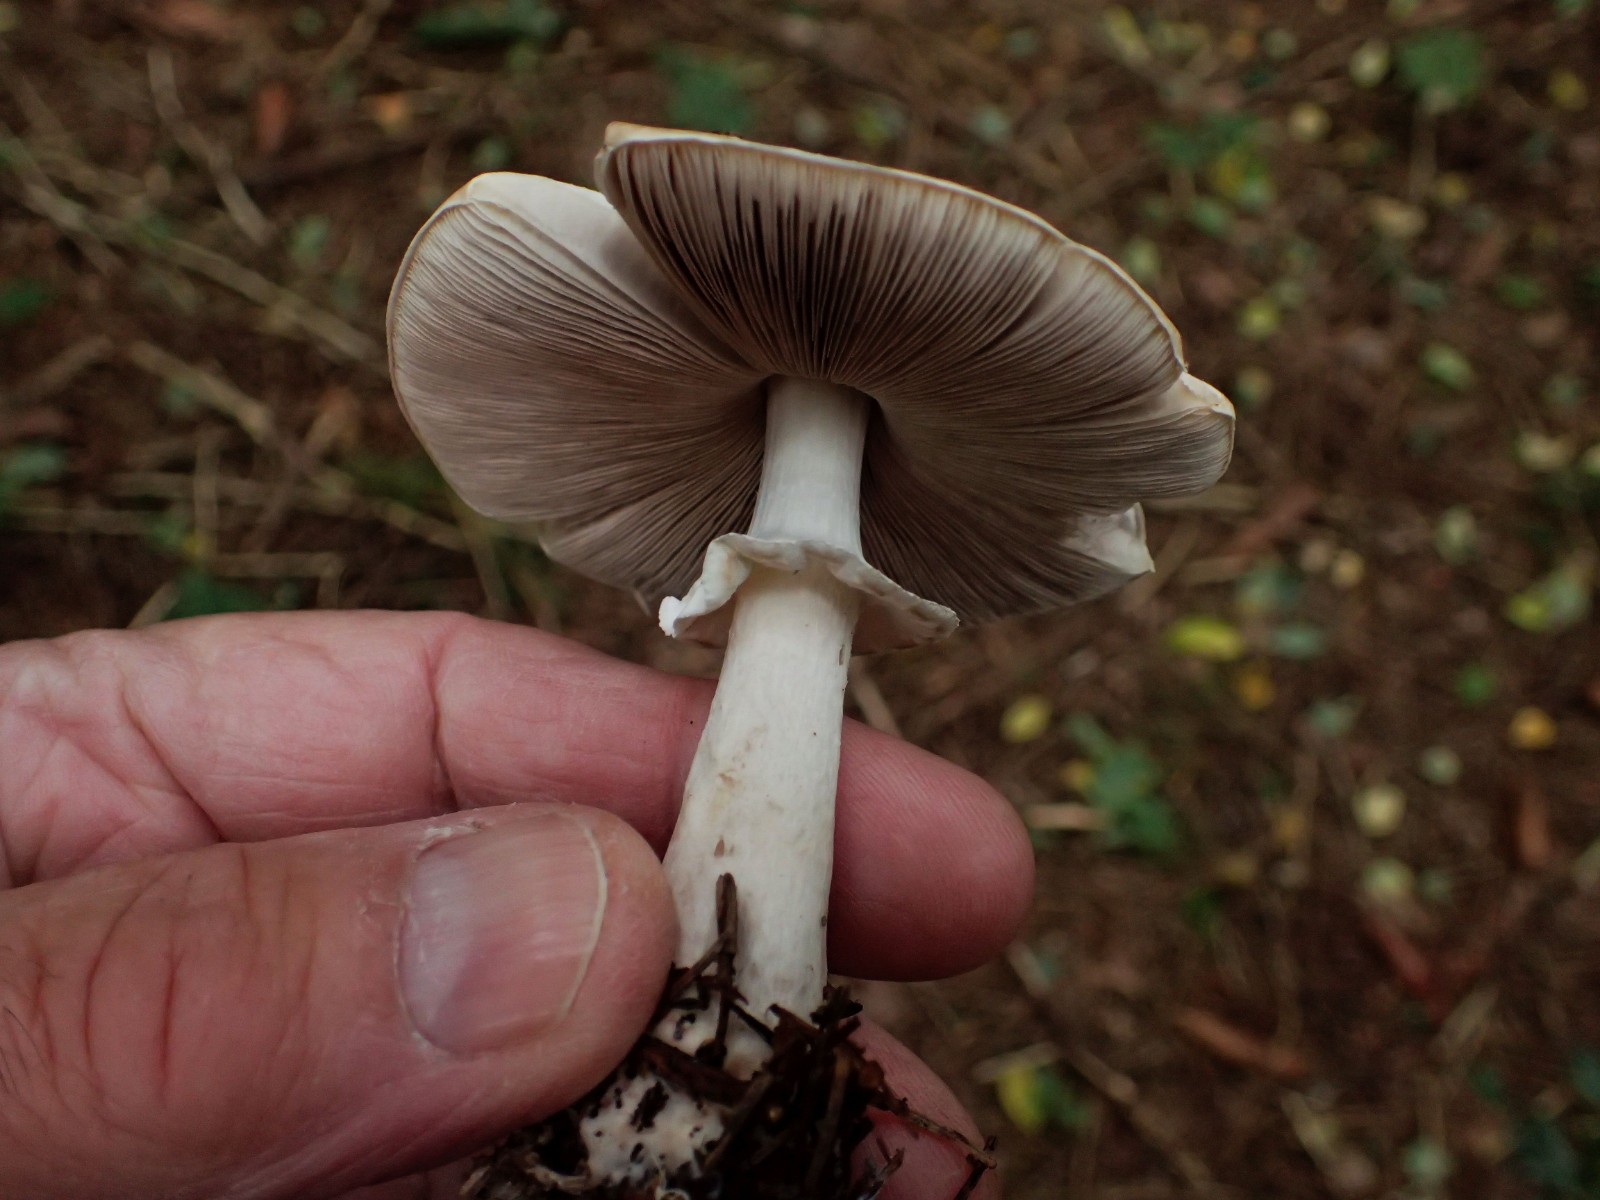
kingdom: Fungi
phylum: Basidiomycota
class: Agaricomycetes
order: Agaricales
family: Agaricaceae
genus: Agaricus
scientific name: Agaricus impudicus
